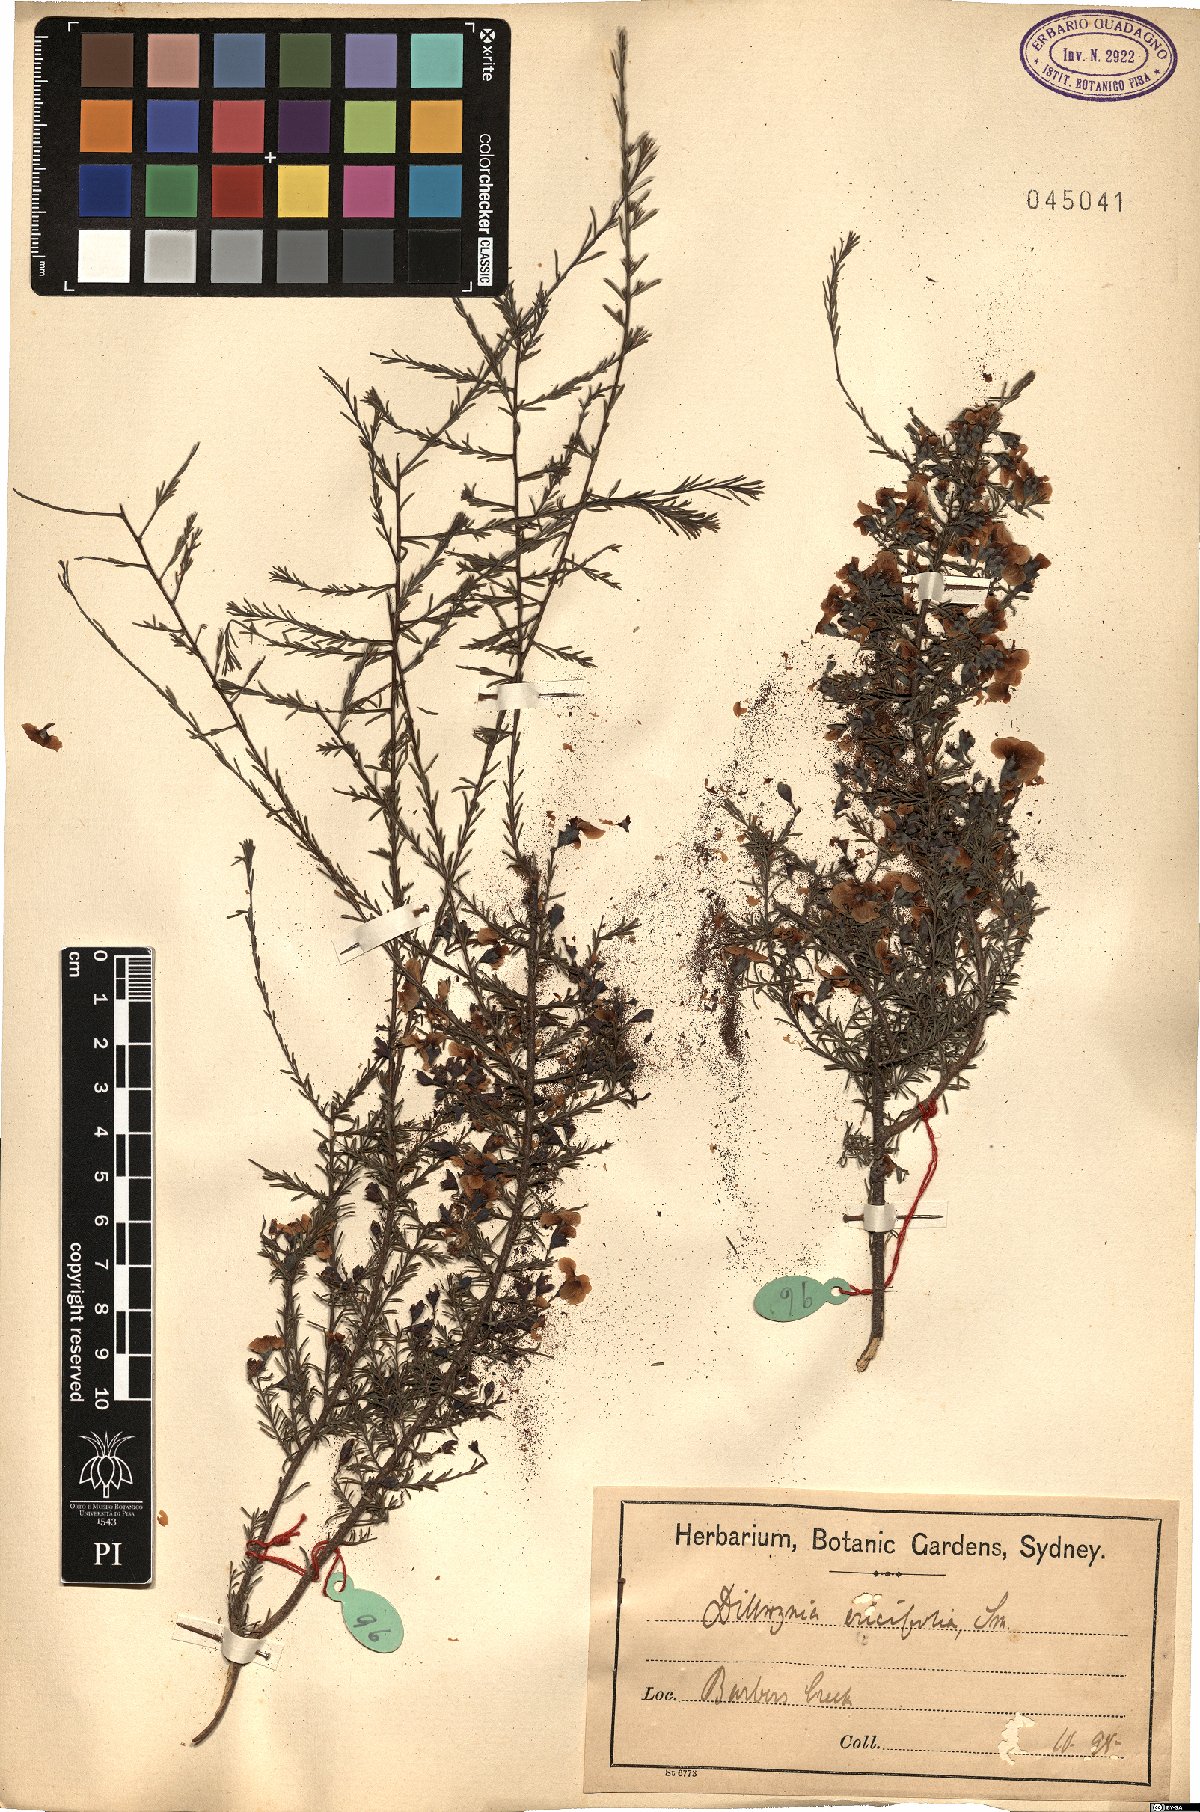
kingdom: Plantae
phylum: Tracheophyta
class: Magnoliopsida
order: Fabales
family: Fabaceae
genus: Dillwynia
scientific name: Dillwynia retorta
